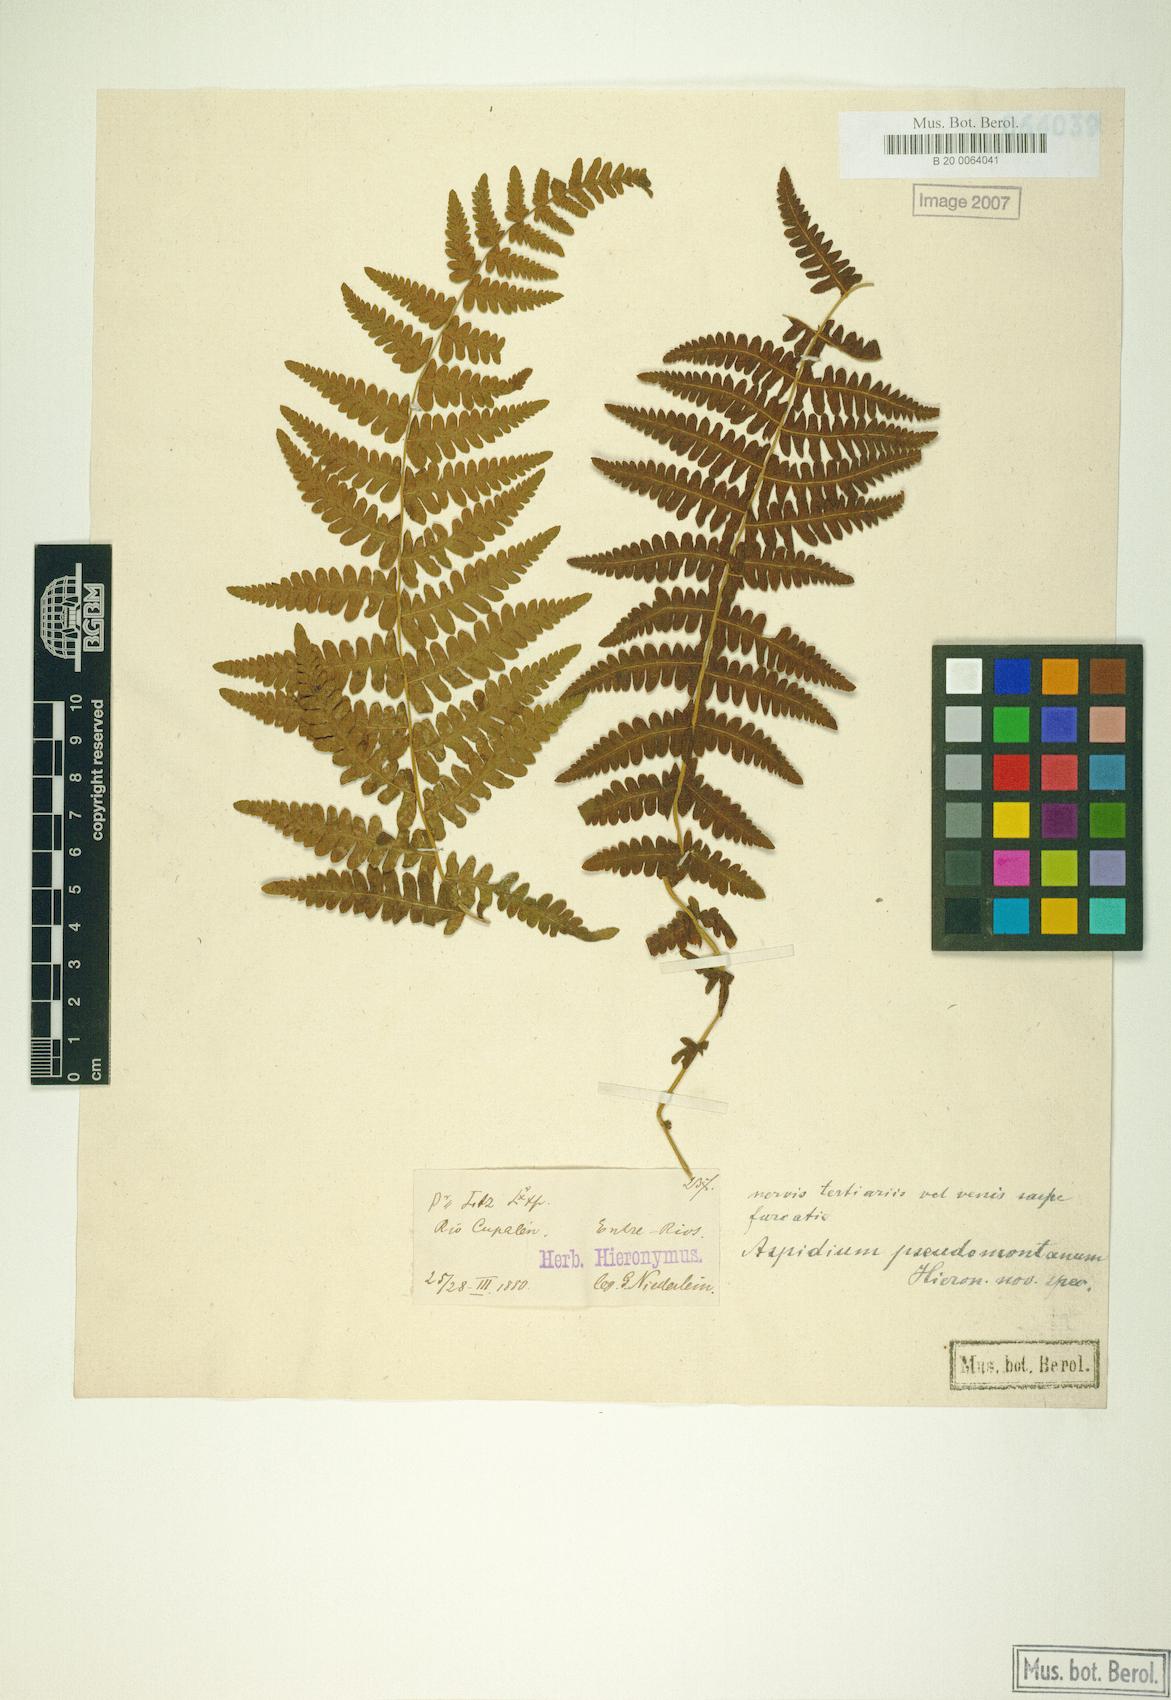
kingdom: Plantae
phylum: Tracheophyta
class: Polypodiopsida
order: Polypodiales
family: Thelypteridaceae
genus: Amauropelta
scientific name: Amauropelta rivularioides
